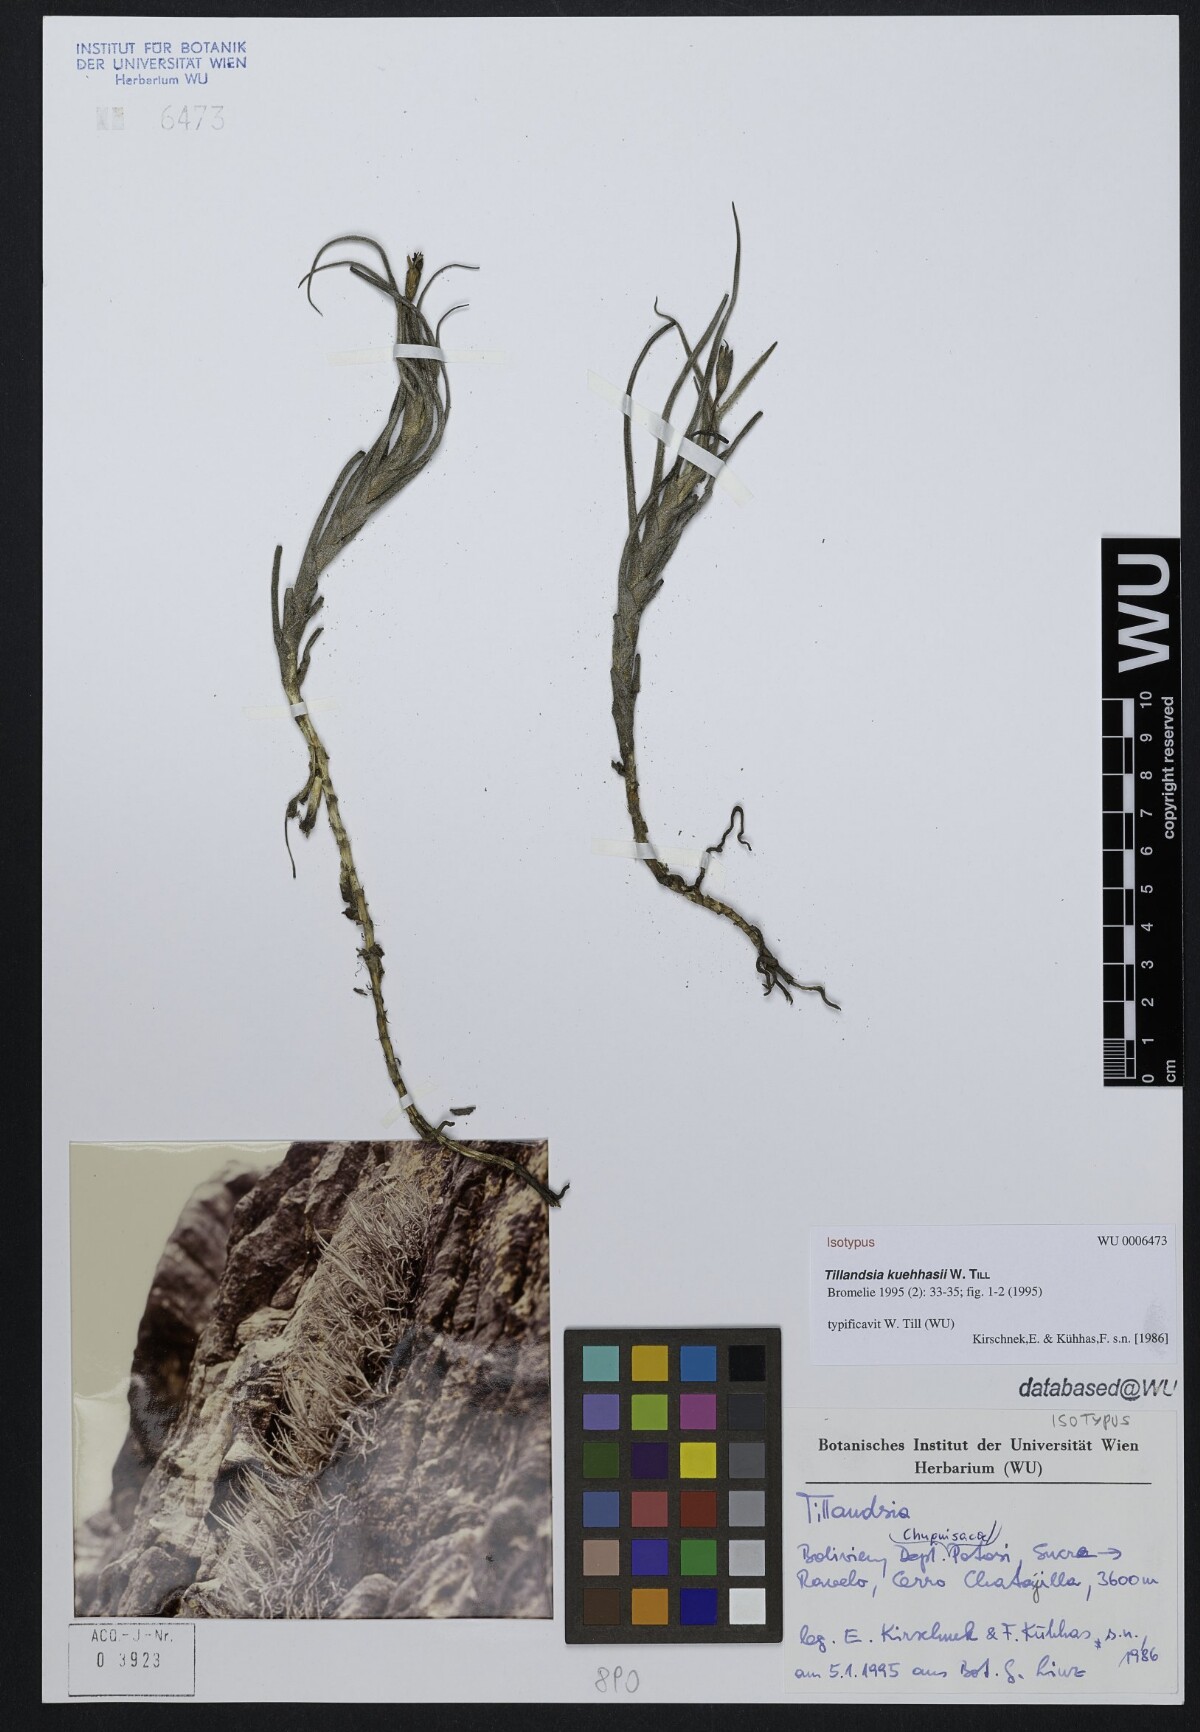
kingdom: Plantae
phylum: Tracheophyta
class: Liliopsida
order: Poales
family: Bromeliaceae
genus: Tillandsia
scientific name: Tillandsia virescens
